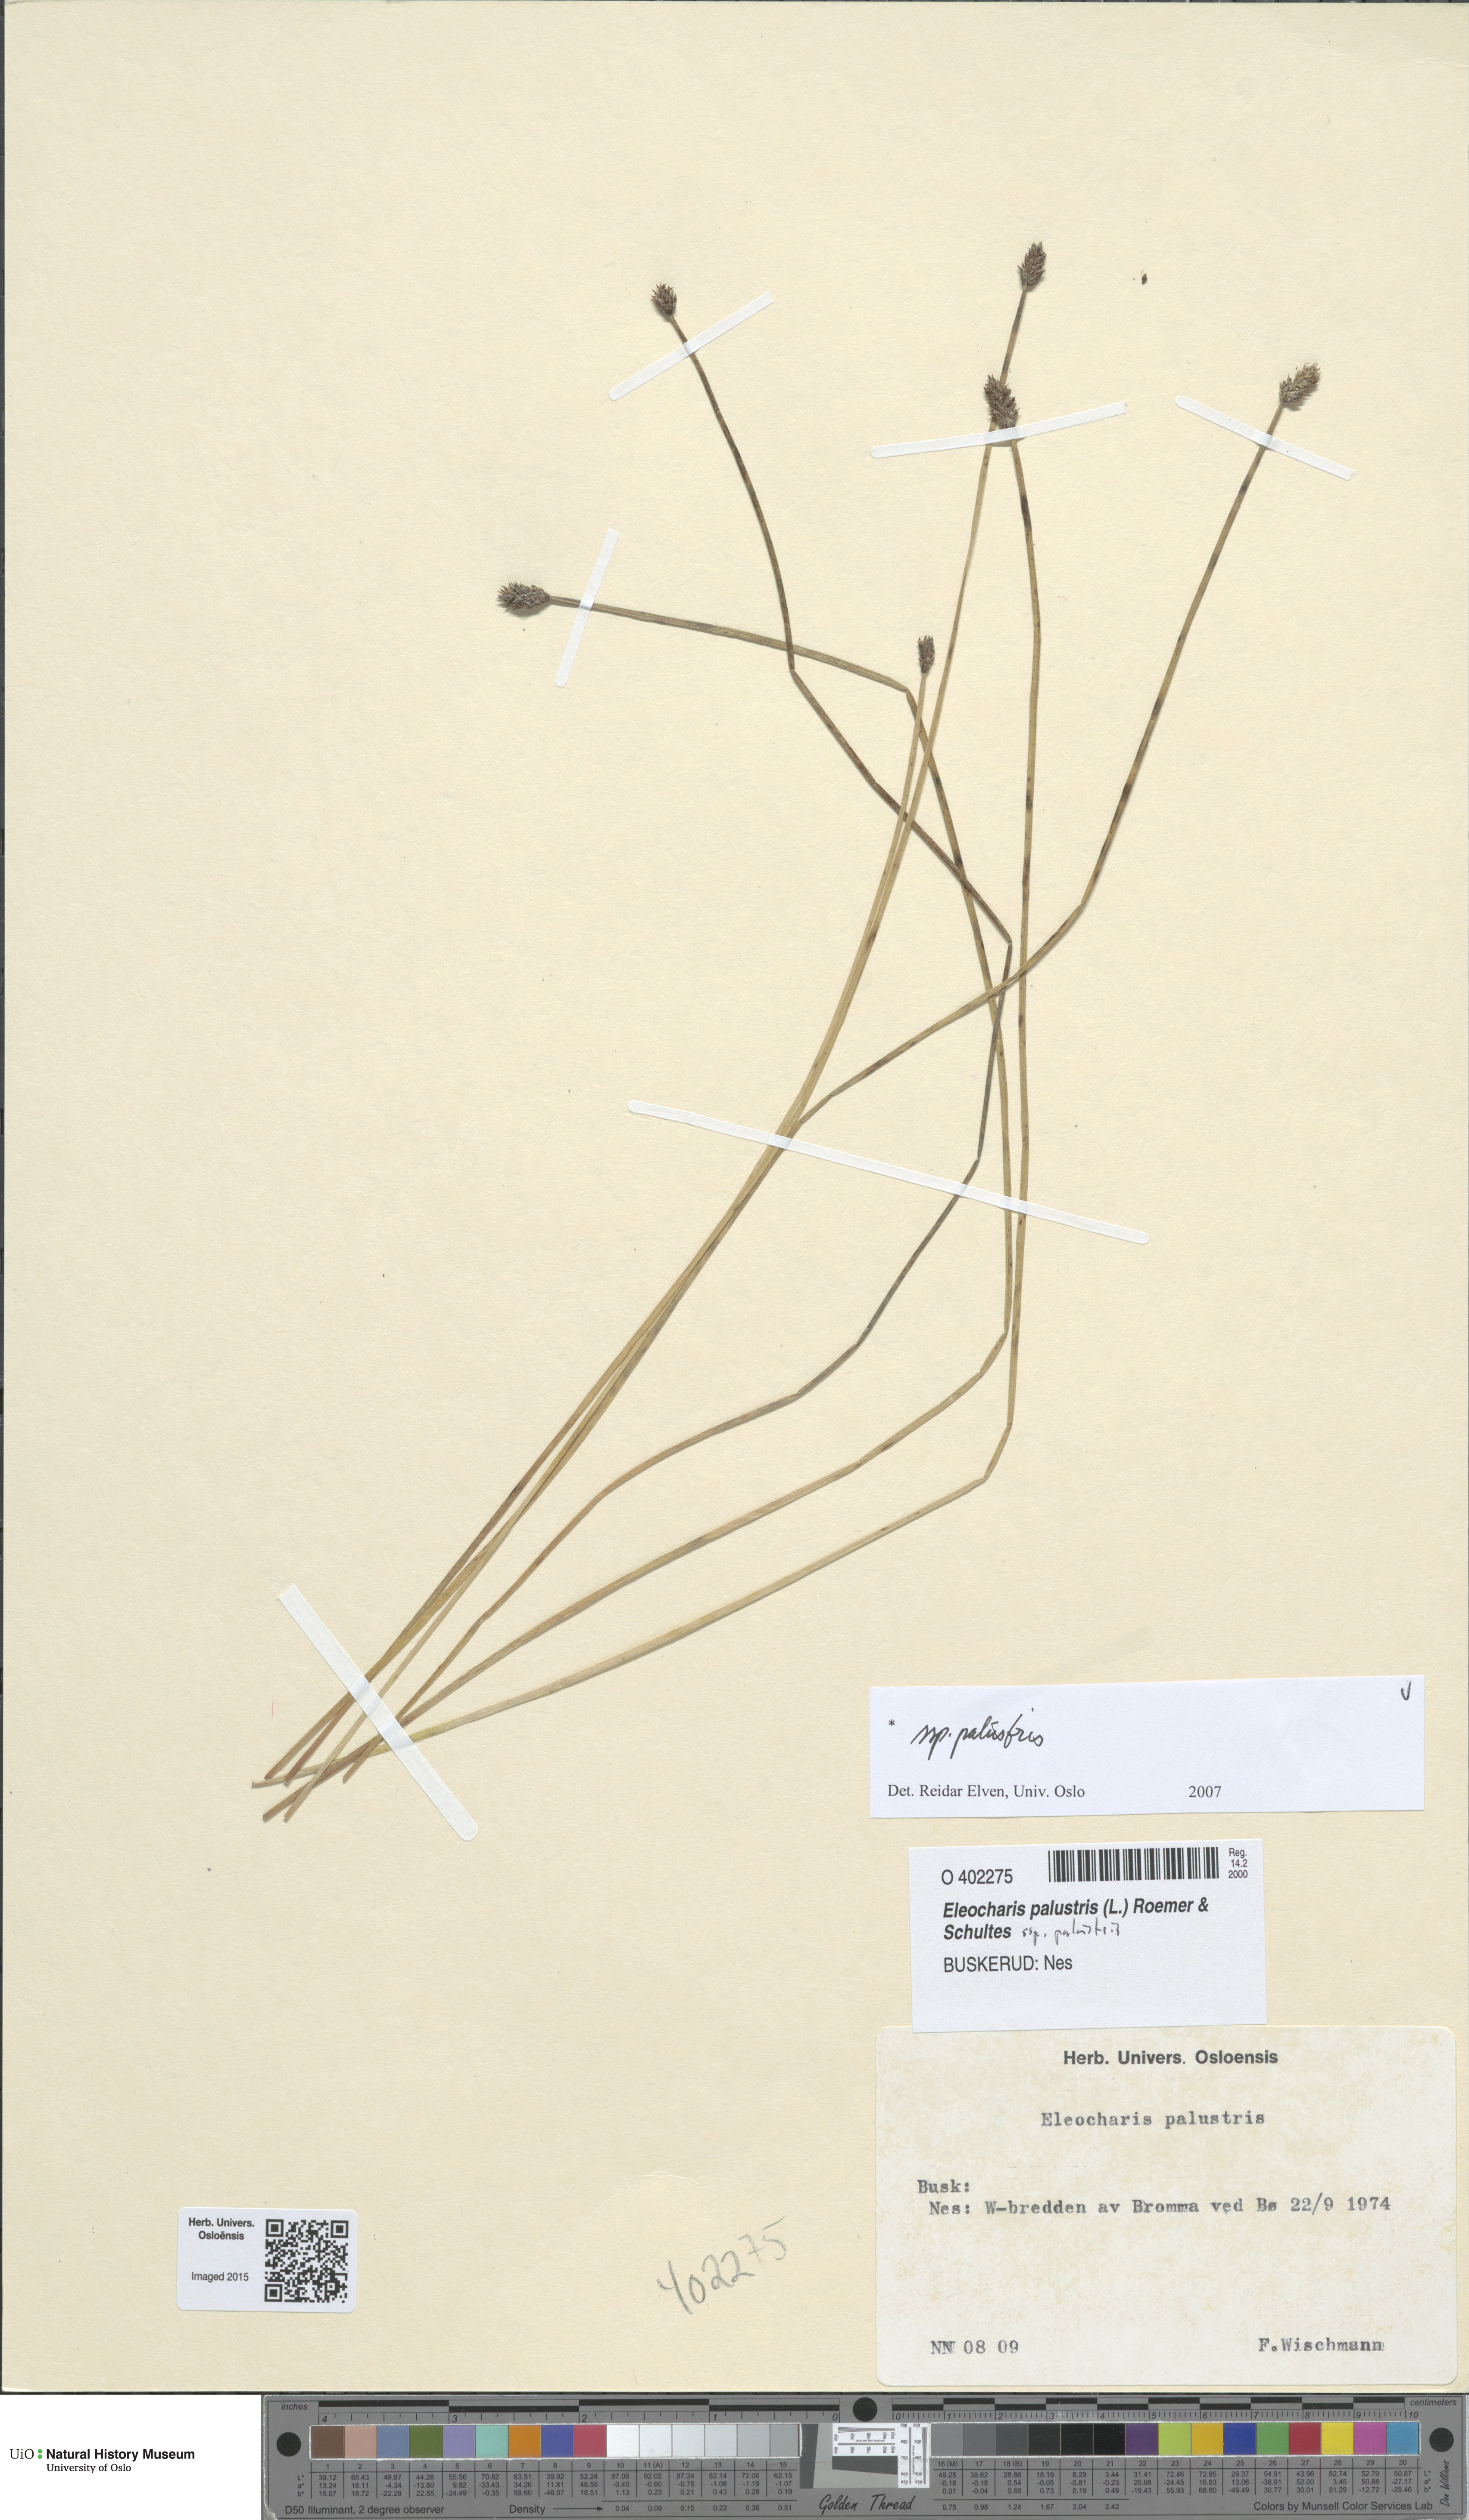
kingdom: Plantae
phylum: Tracheophyta
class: Liliopsida
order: Poales
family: Cyperaceae
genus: Eleocharis
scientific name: Eleocharis palustris
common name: Common spike-rush
